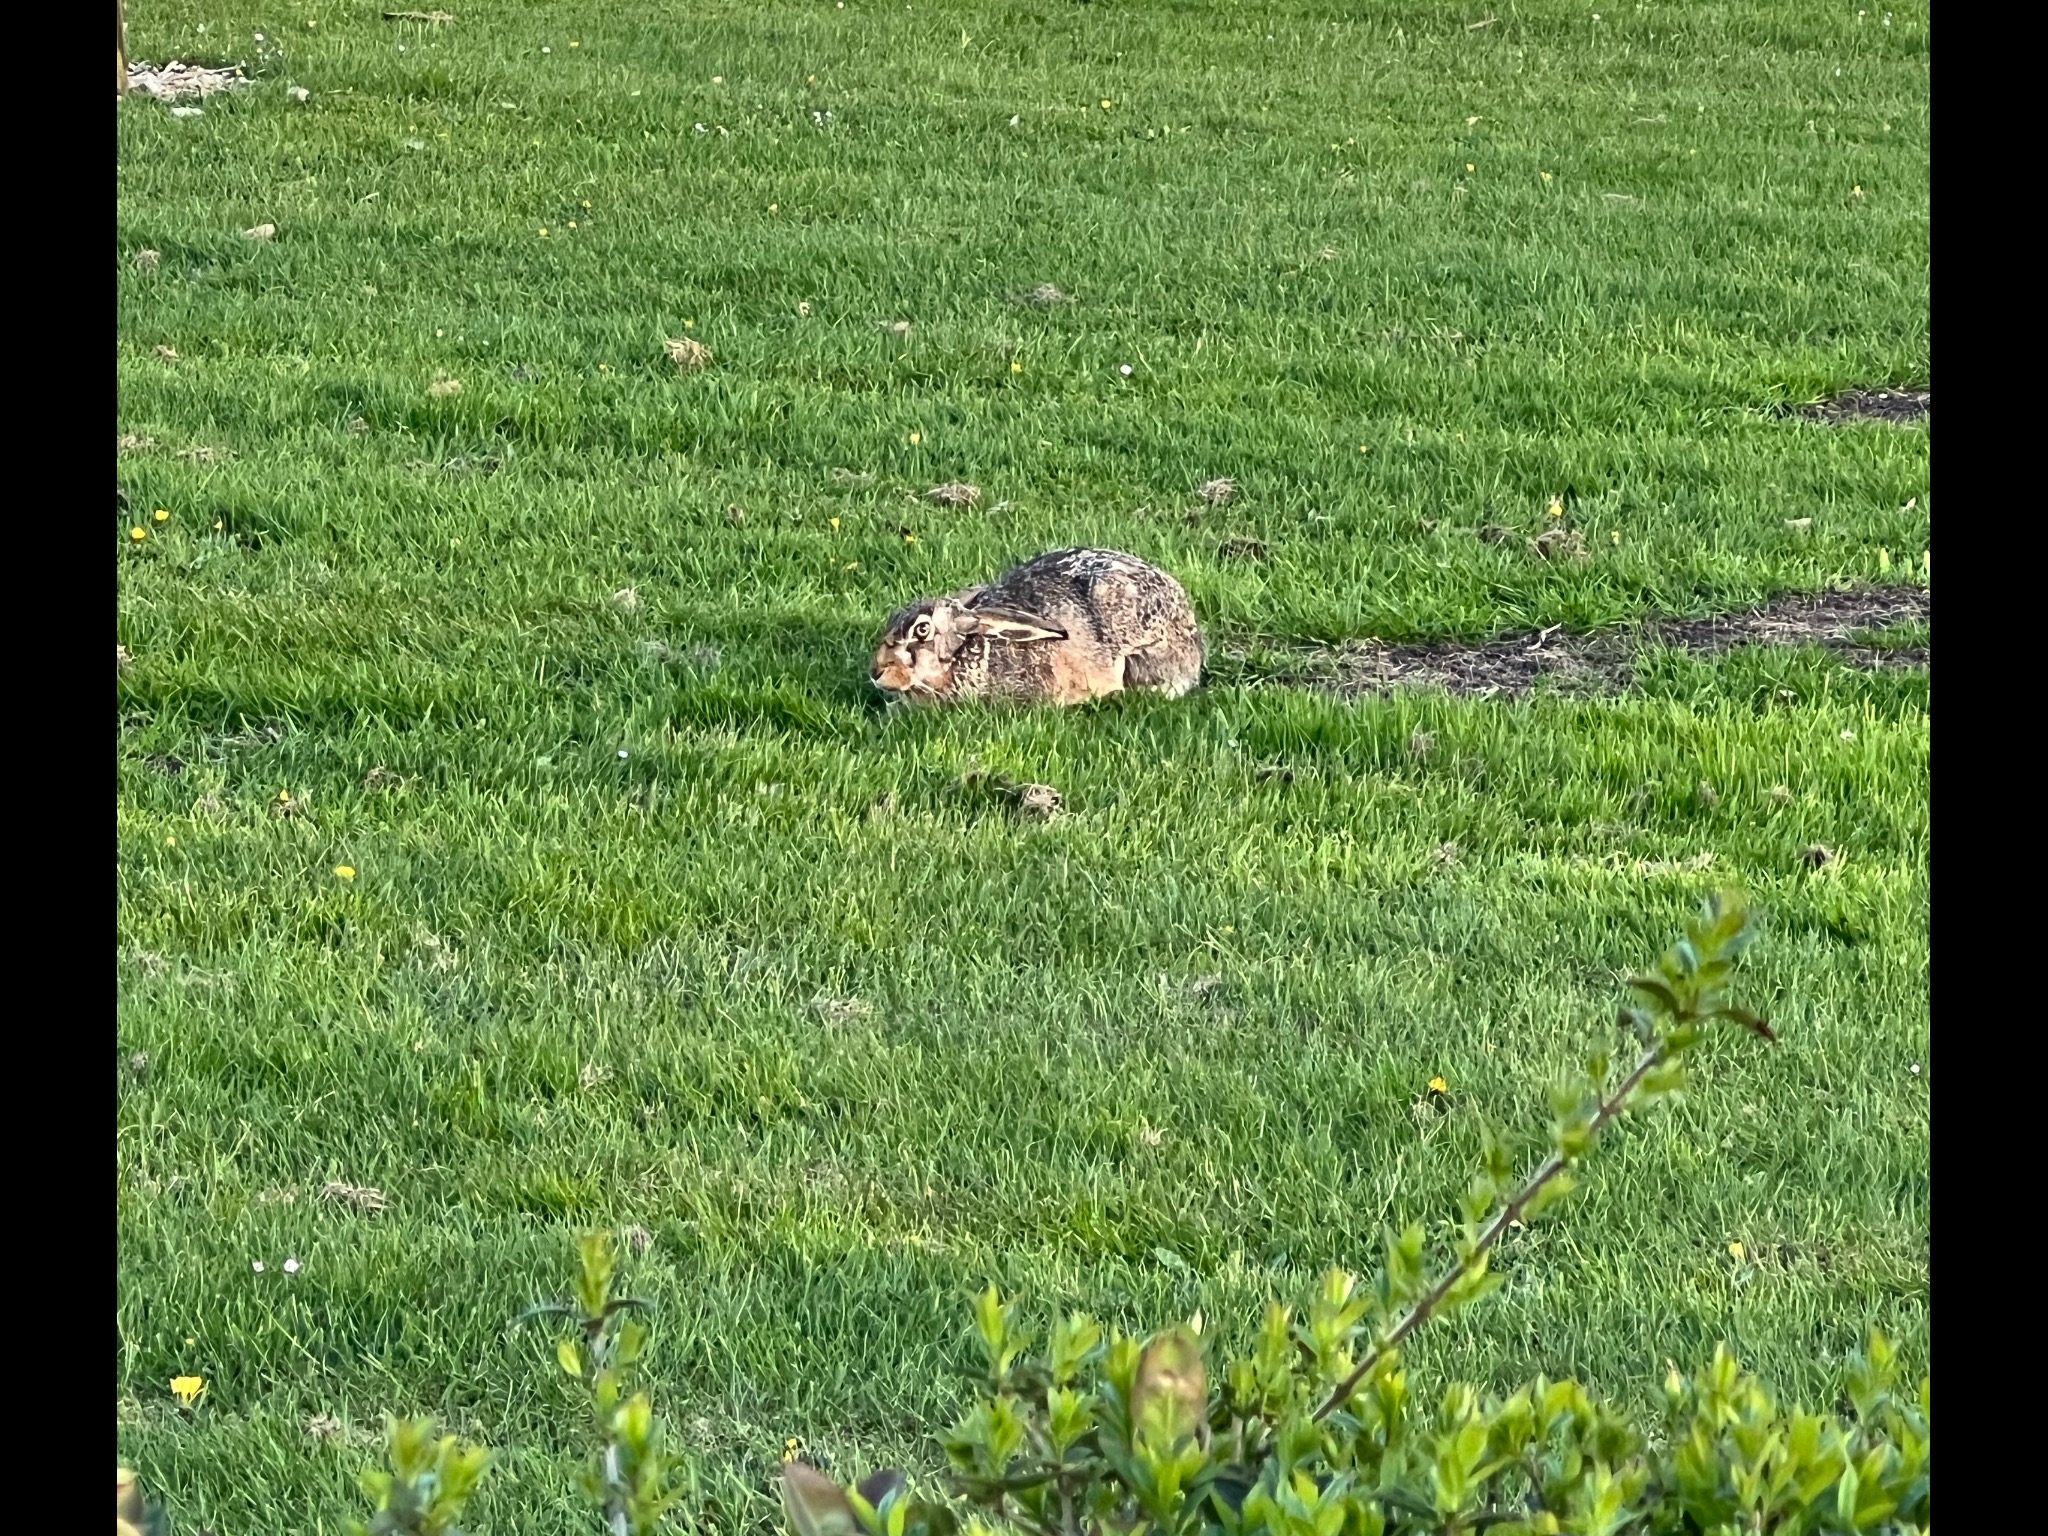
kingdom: Animalia
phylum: Chordata
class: Mammalia
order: Lagomorpha
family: Leporidae
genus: Lepus
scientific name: Lepus europaeus
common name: Hare
